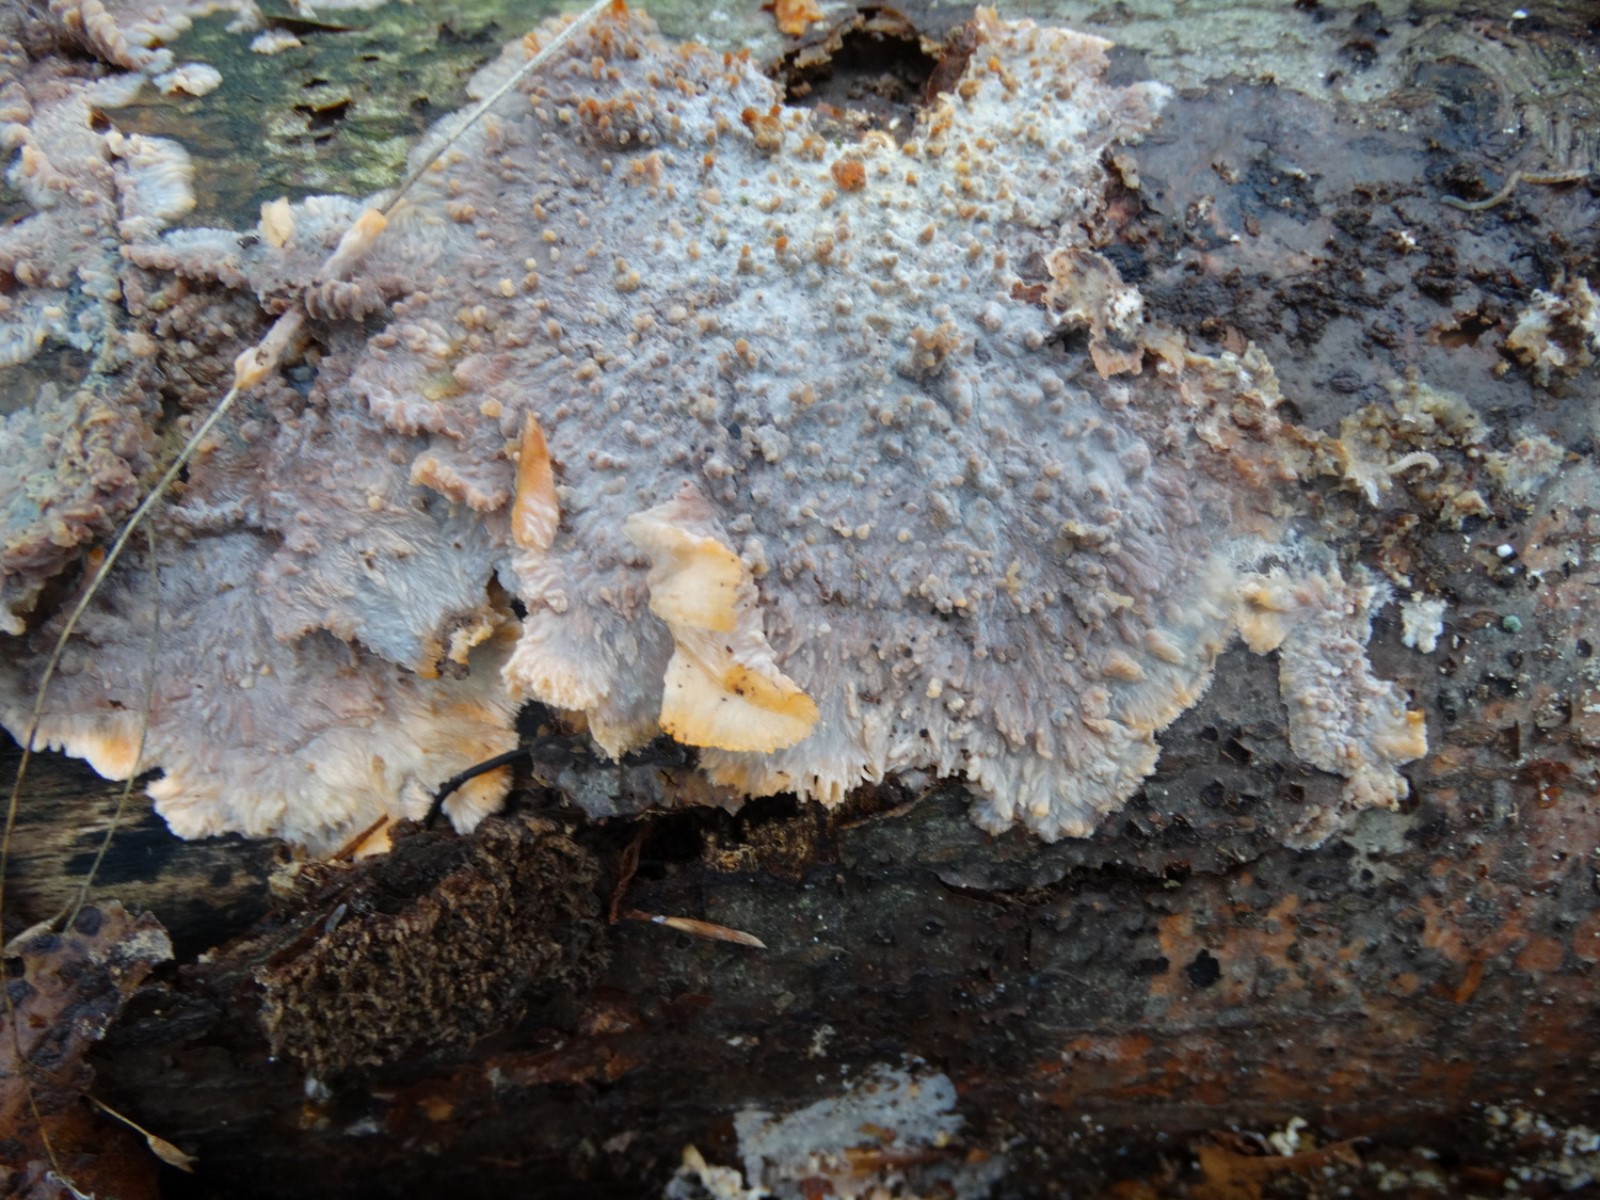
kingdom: Fungi
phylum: Basidiomycota
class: Agaricomycetes
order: Polyporales
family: Meruliaceae
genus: Phlebia
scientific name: Phlebia radiata
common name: stråle-åresvamp
